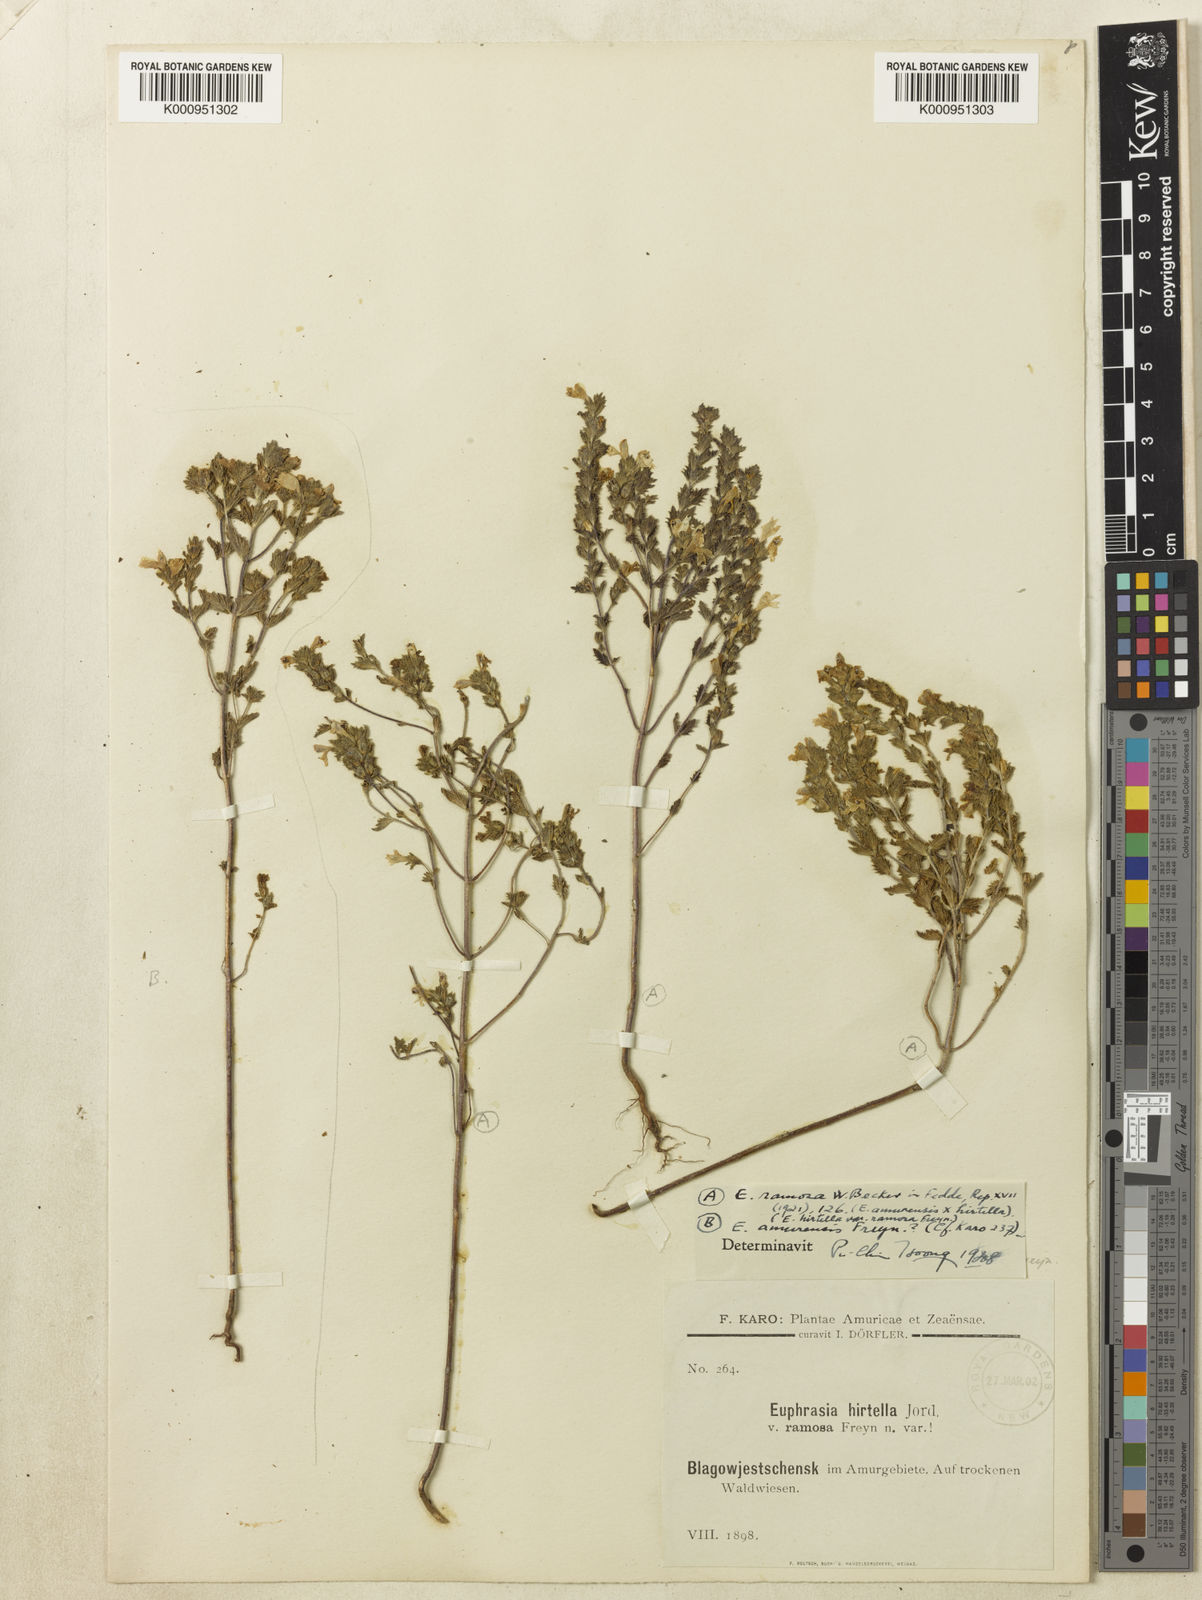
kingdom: Plantae
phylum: Tracheophyta
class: Magnoliopsida
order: Lamiales
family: Orobanchaceae
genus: Euphrasia
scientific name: Euphrasia hirtella
